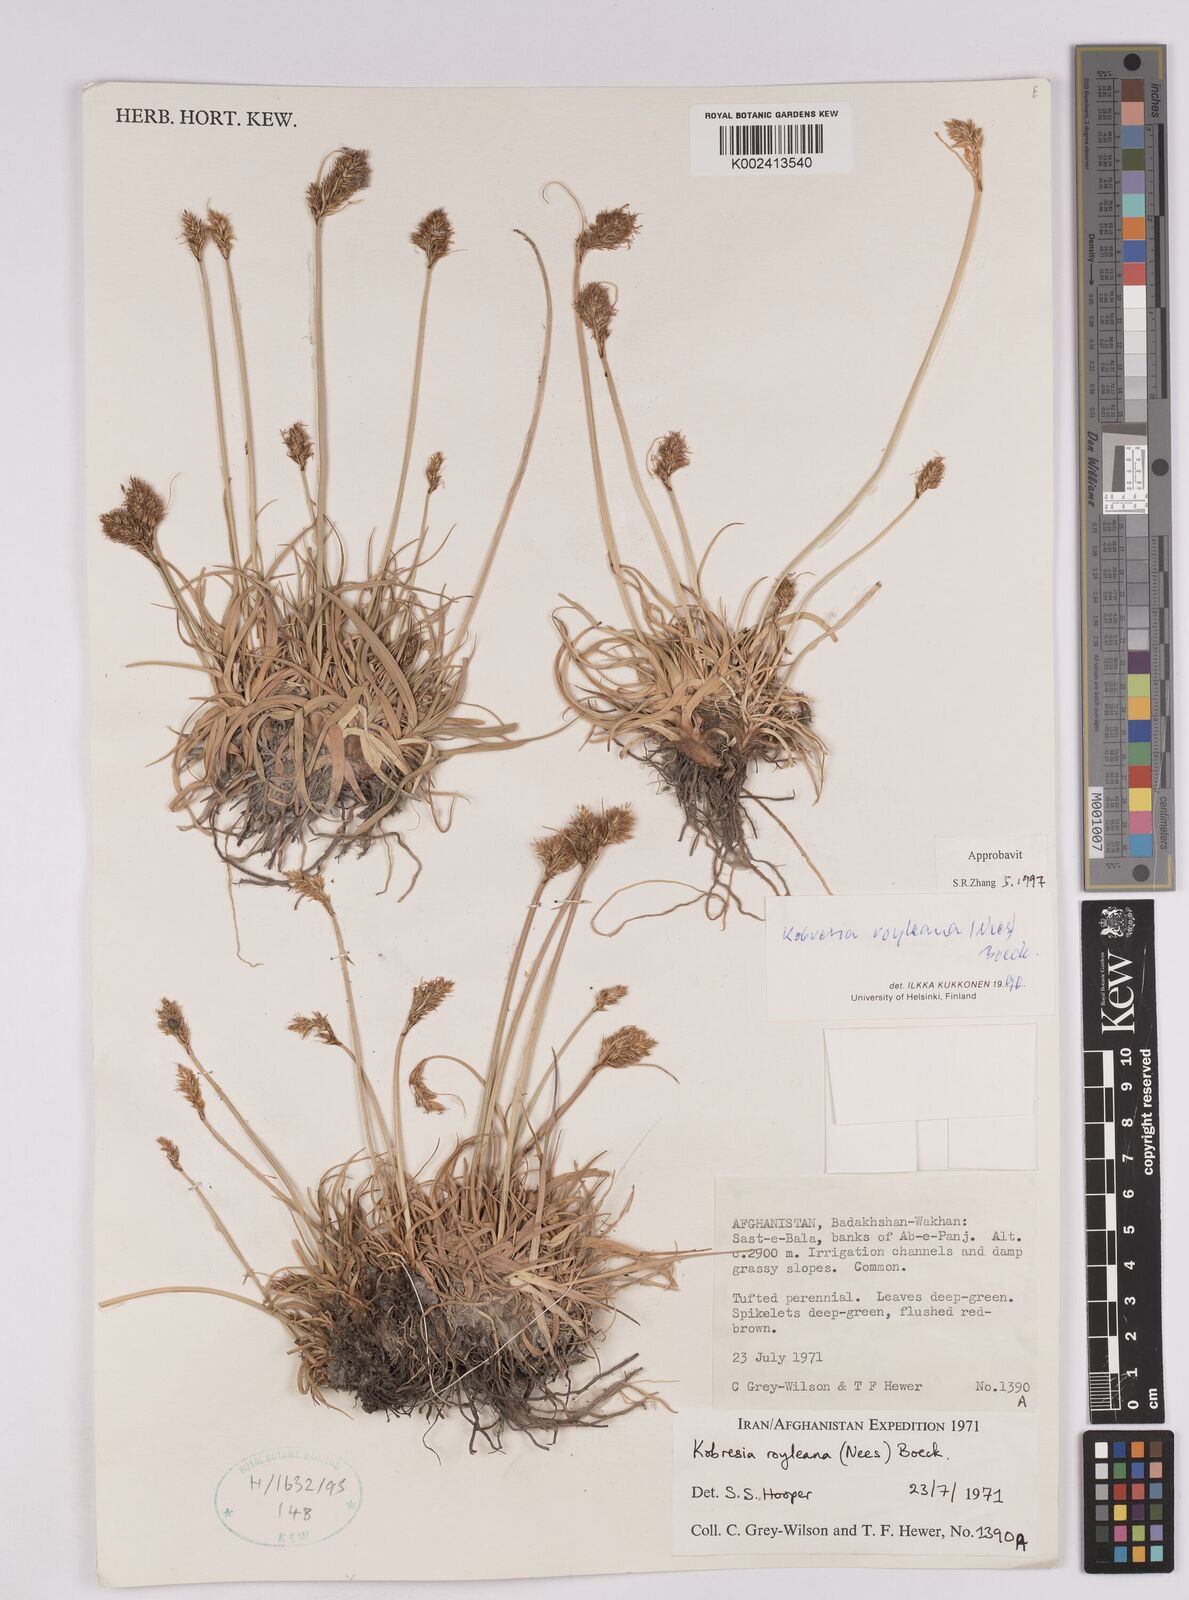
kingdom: Plantae
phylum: Tracheophyta
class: Liliopsida
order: Poales
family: Cyperaceae
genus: Carex
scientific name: Carex kokanica
